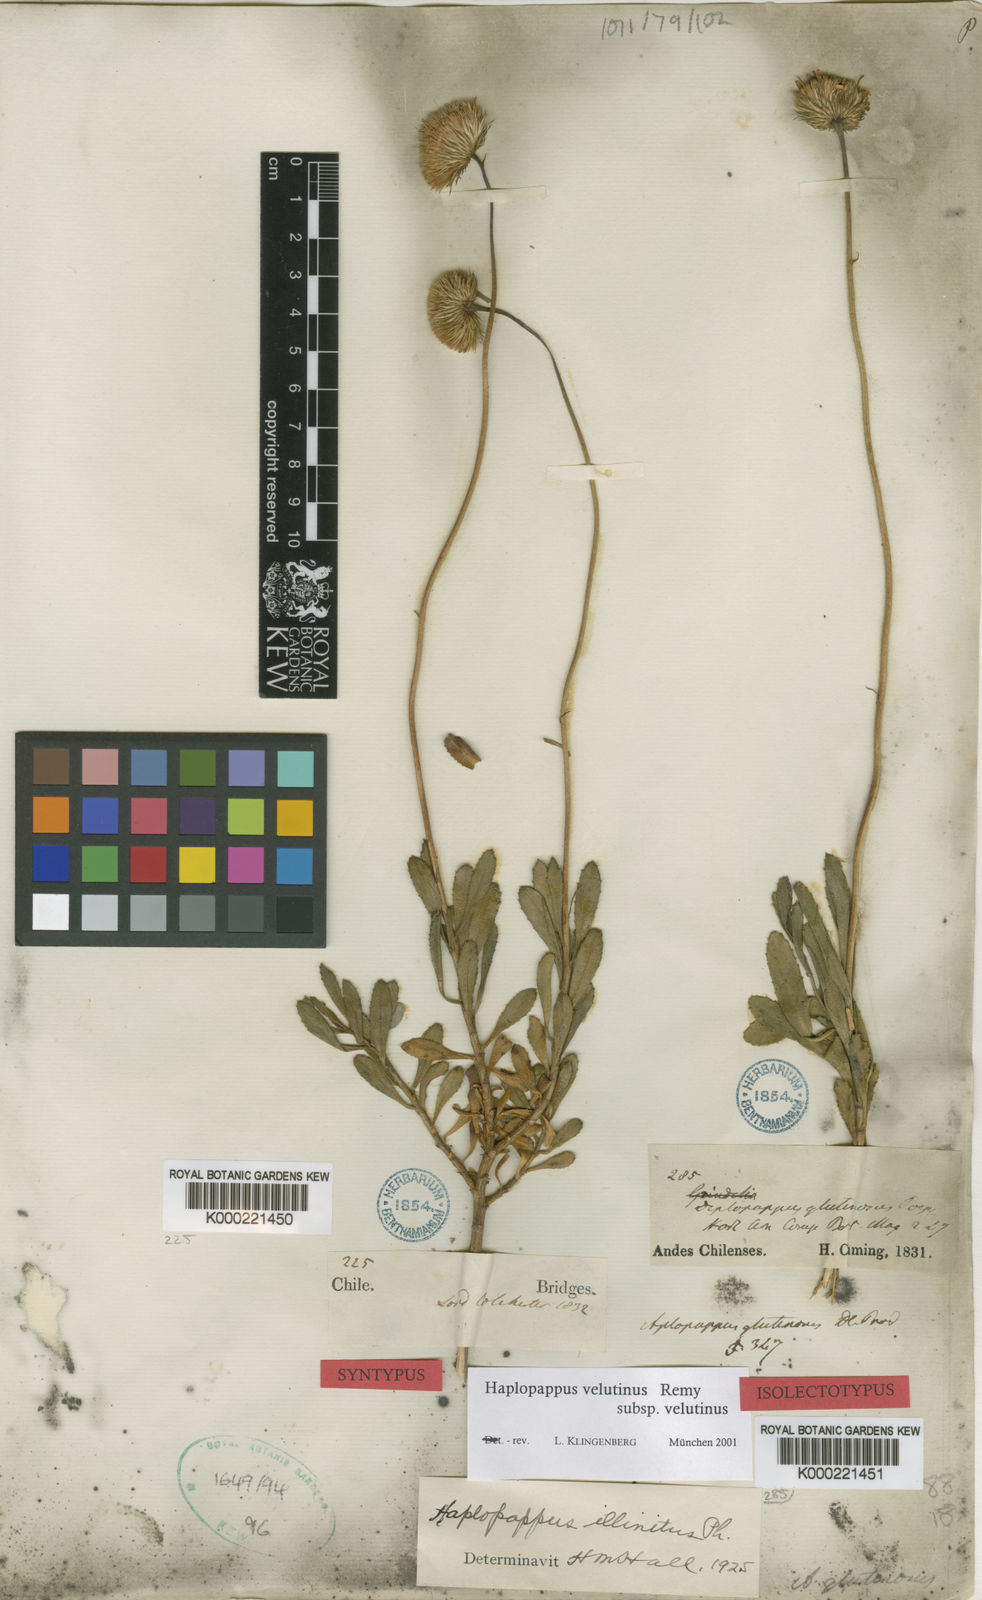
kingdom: Plantae
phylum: Tracheophyta
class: Magnoliopsida
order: Asterales
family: Asteraceae
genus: Haplopappus
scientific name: Haplopappus velutinus
